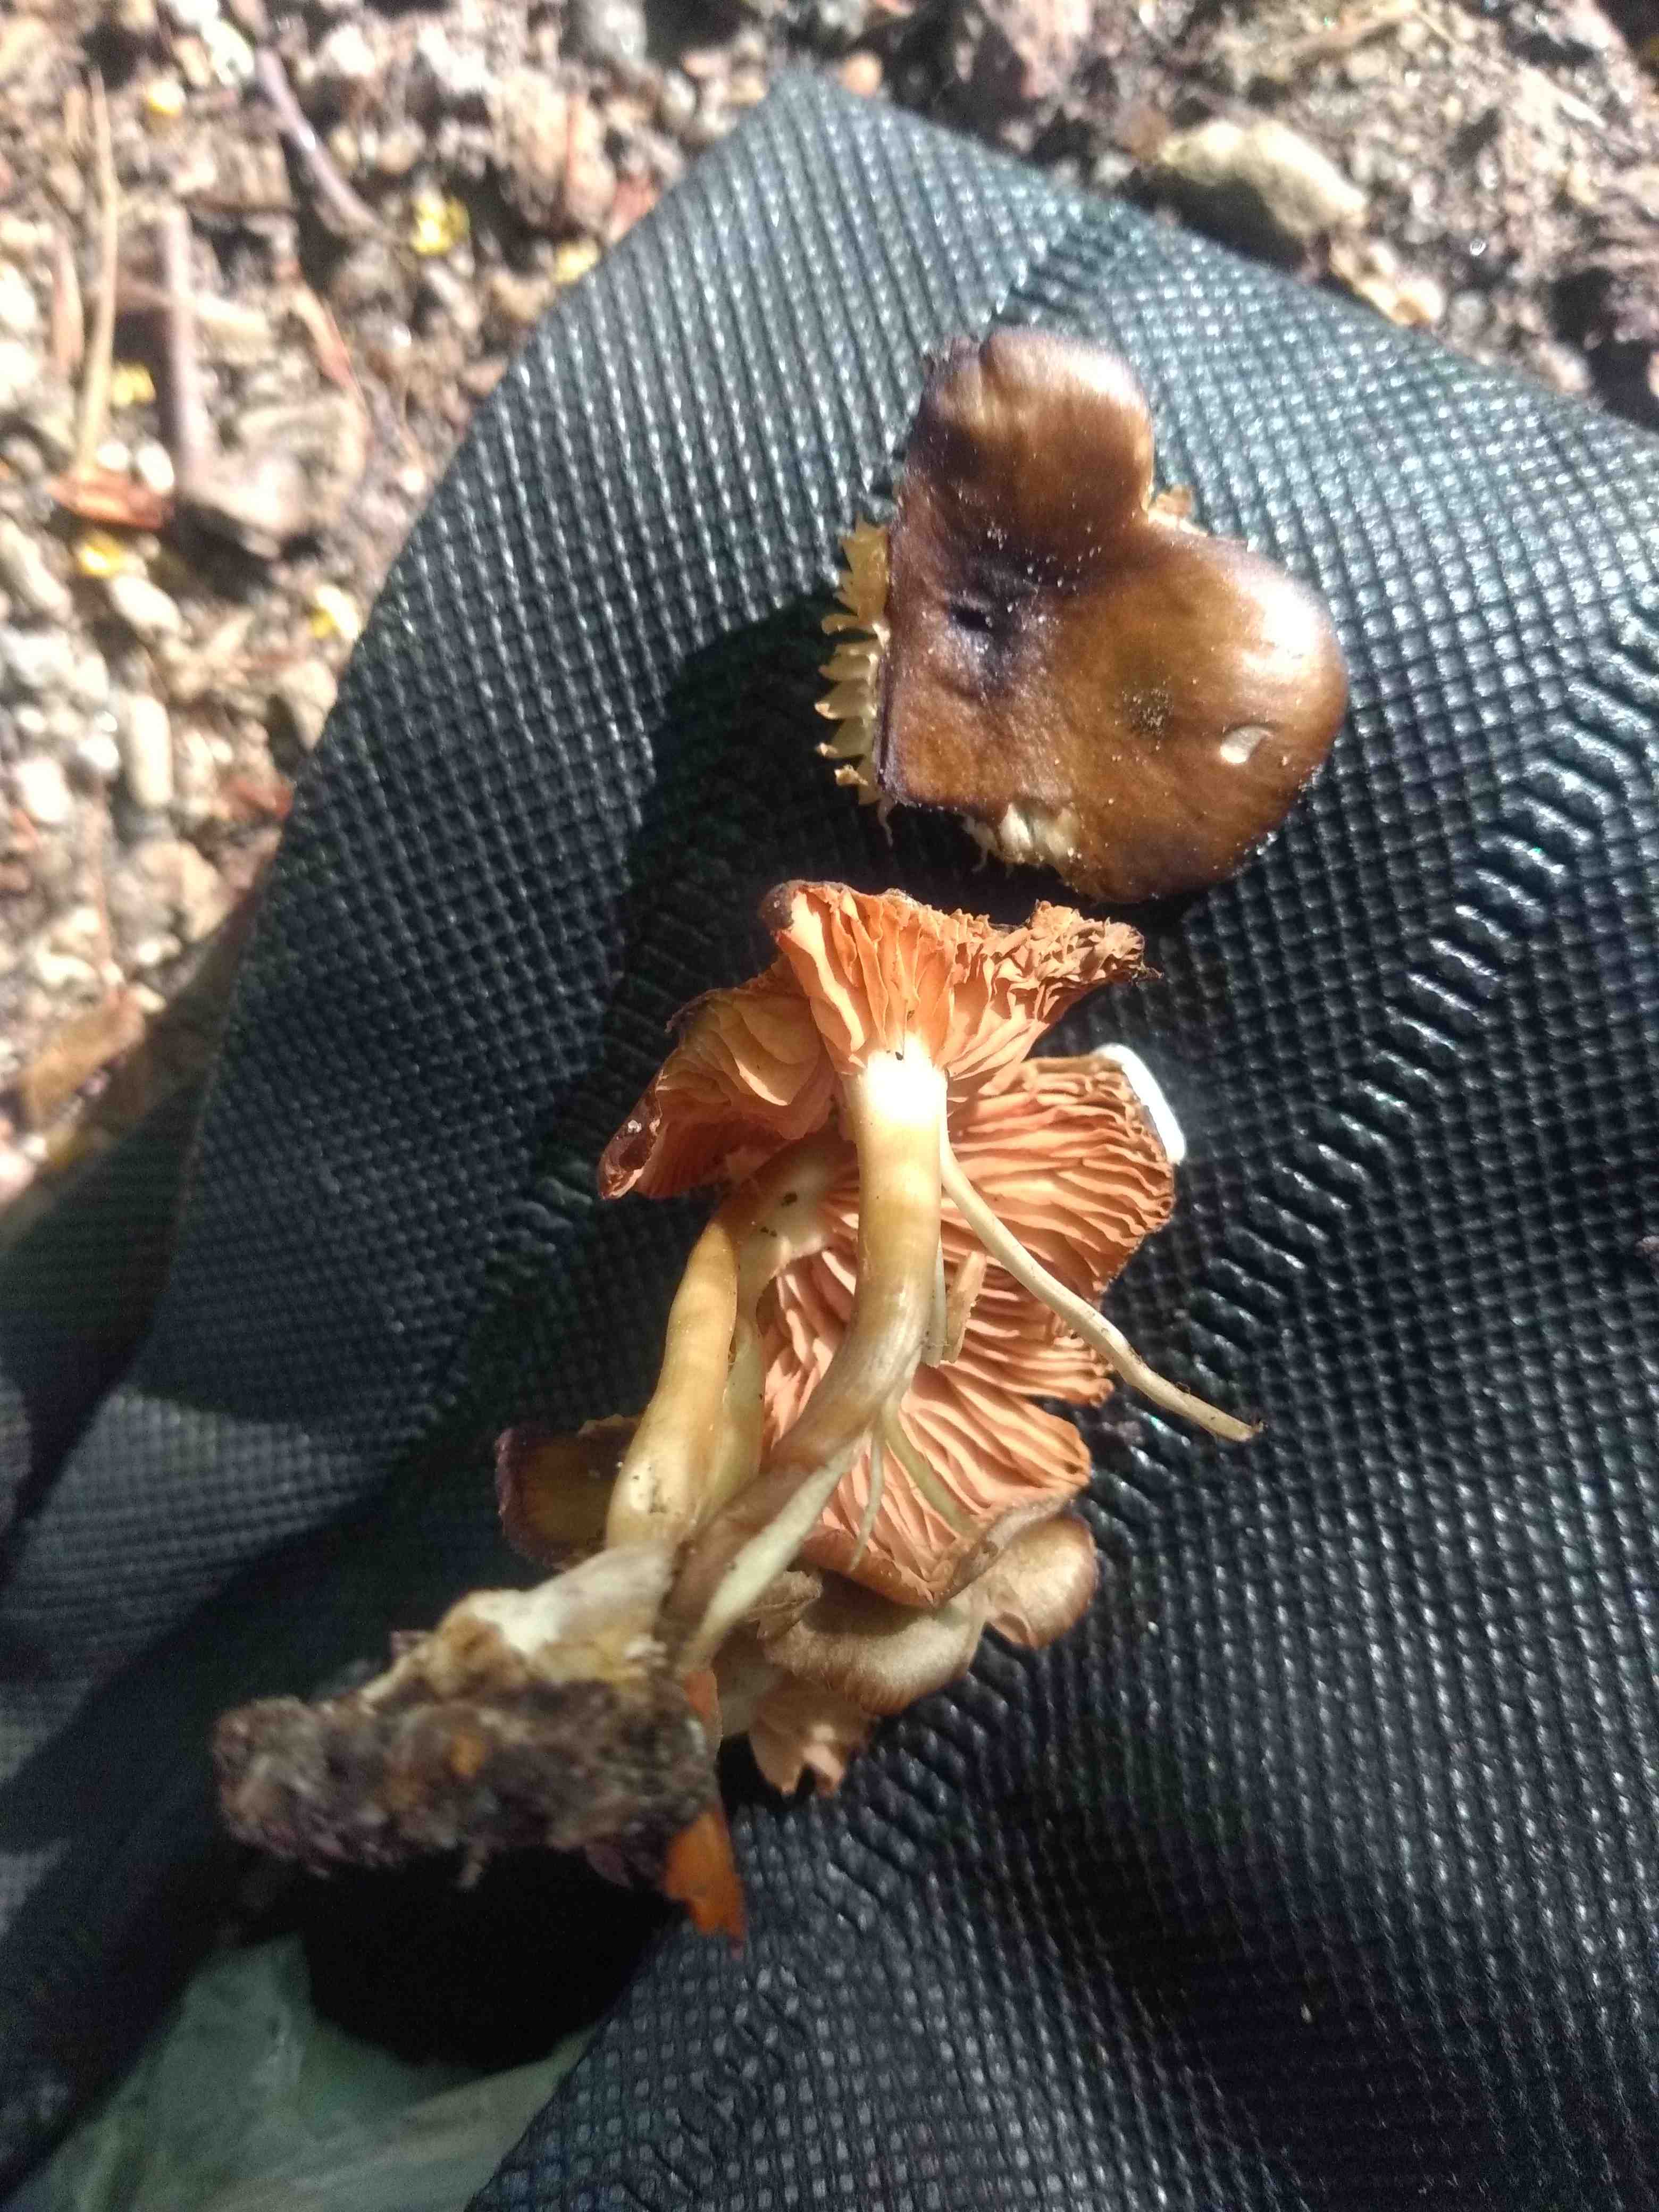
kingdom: Fungi
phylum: Basidiomycota
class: Agaricomycetes
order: Agaricales
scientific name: Agaricales
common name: champignonordenen
